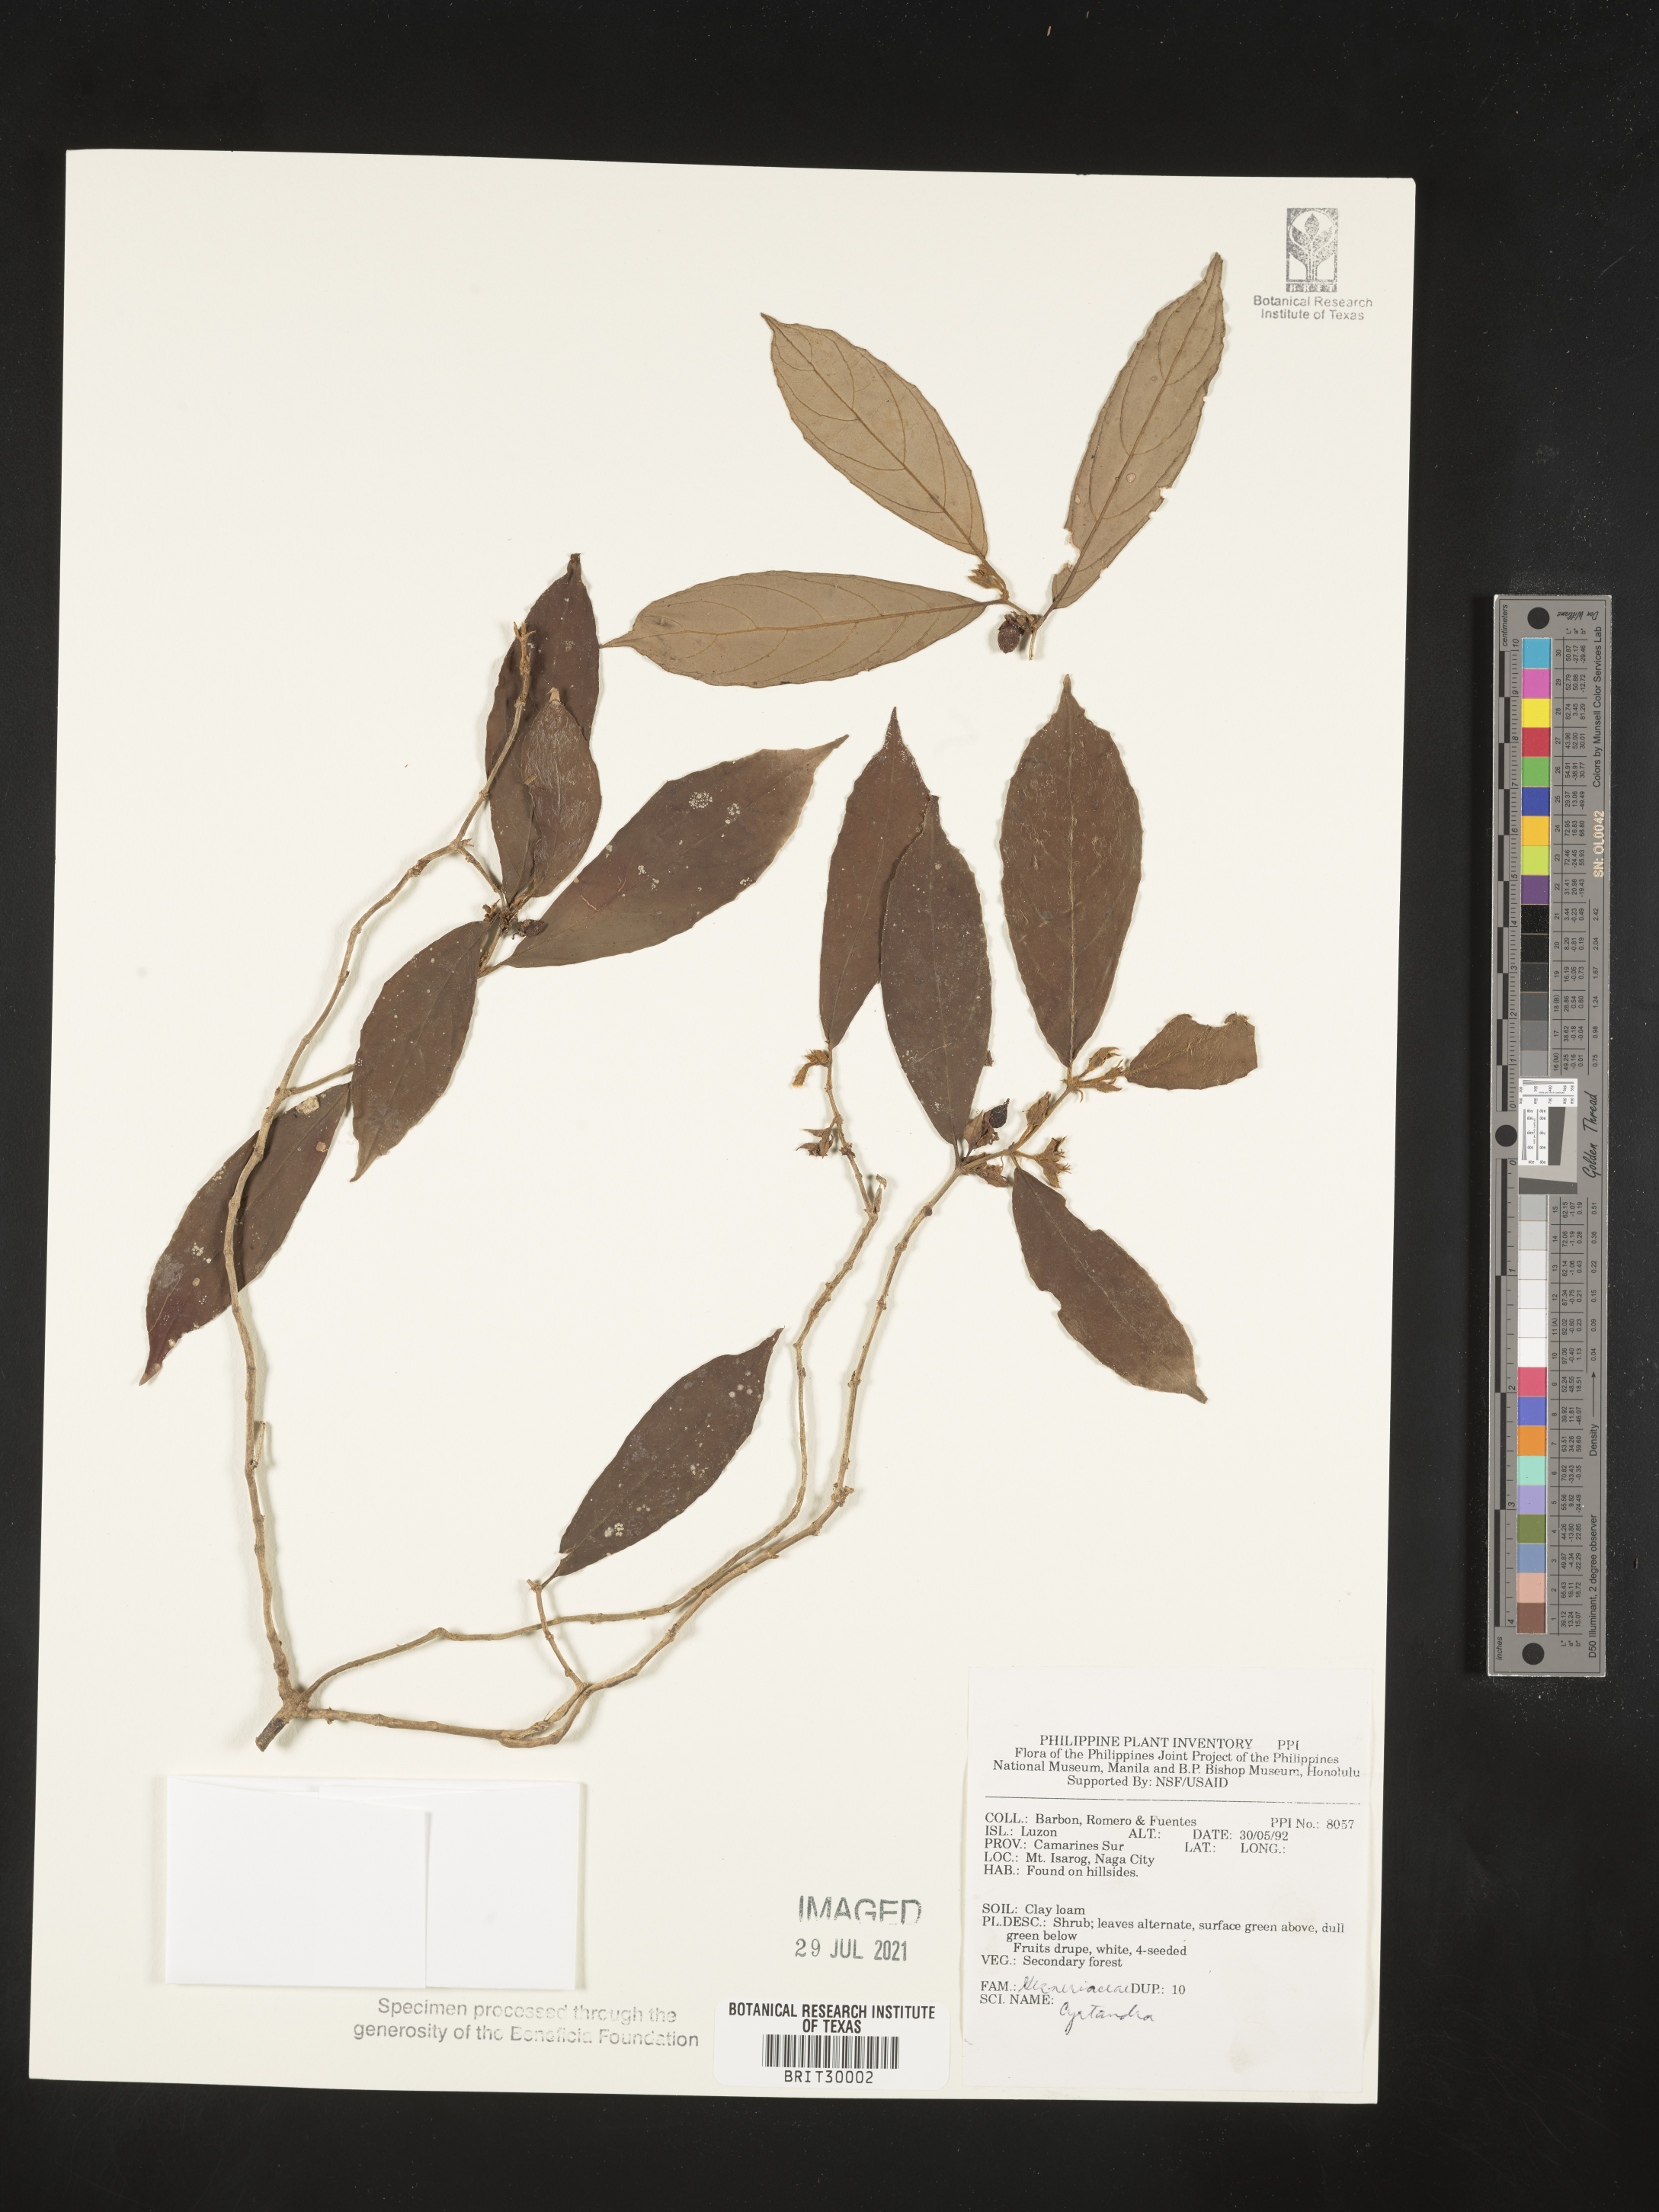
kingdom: Plantae
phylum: Tracheophyta
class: Magnoliopsida
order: Lamiales
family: Gesneriaceae
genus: Cyrtandra
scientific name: Cyrtandra
